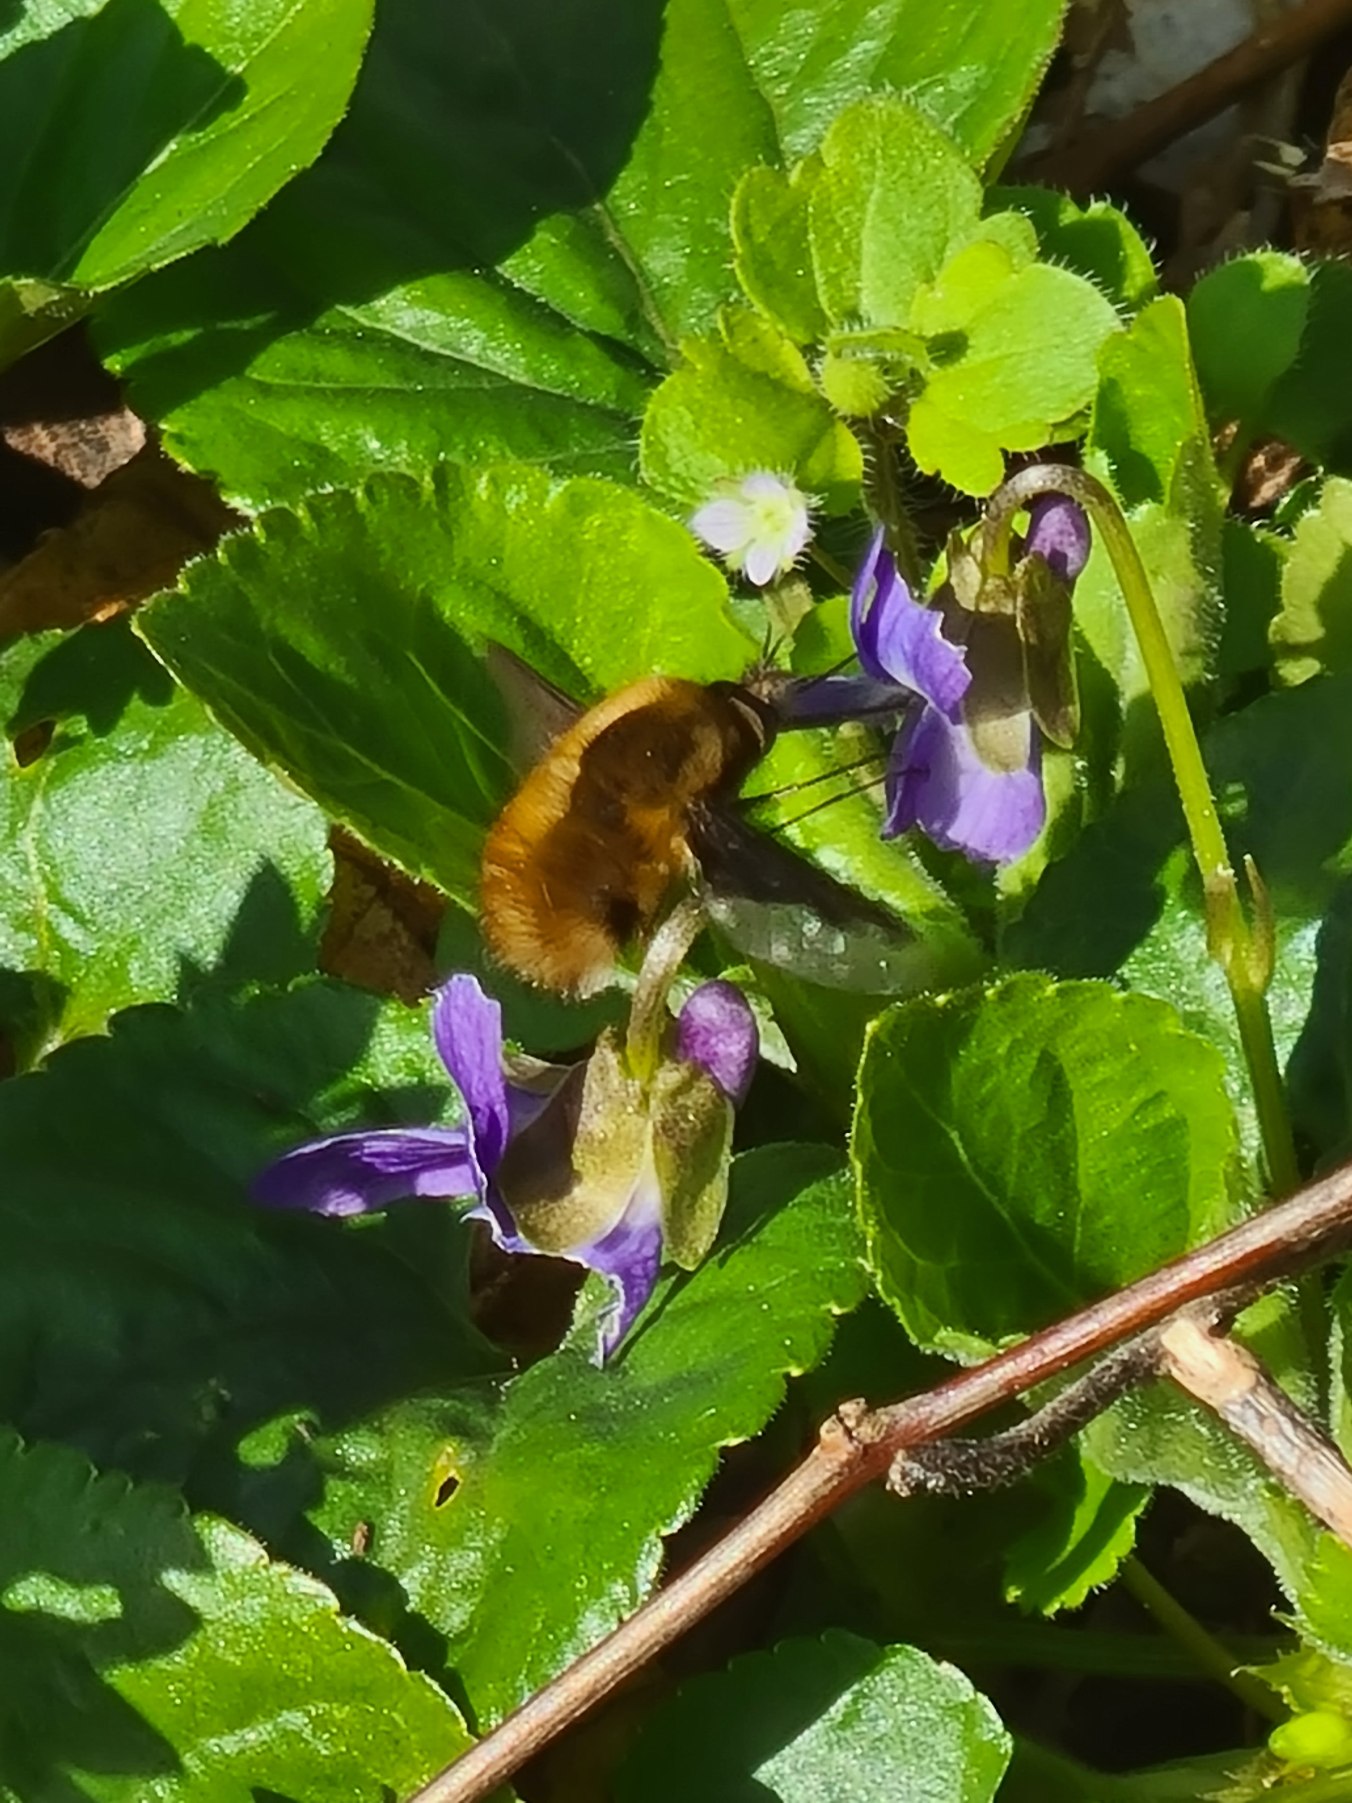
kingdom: Animalia
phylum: Arthropoda
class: Insecta
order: Diptera
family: Bombyliidae
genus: Bombylius
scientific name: Bombylius major
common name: Stor humleflue
